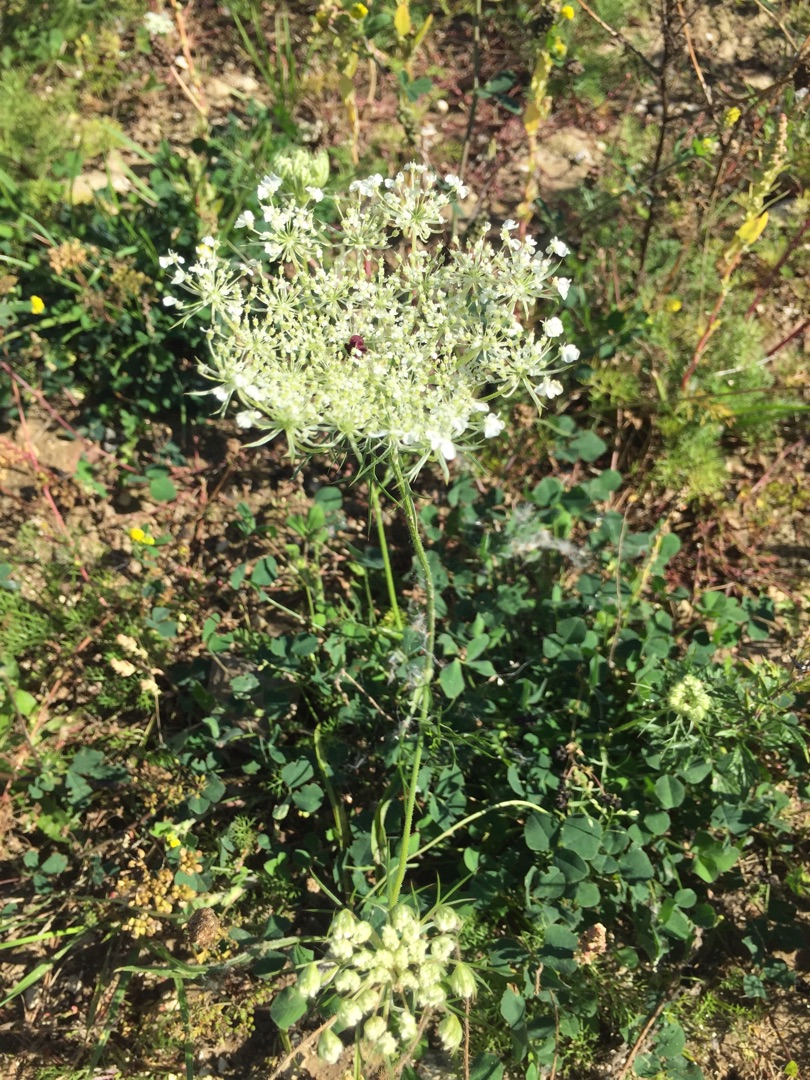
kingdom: Plantae
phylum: Tracheophyta
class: Magnoliopsida
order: Apiales
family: Apiaceae
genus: Daucus
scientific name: Daucus carota
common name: Vild gulerod
